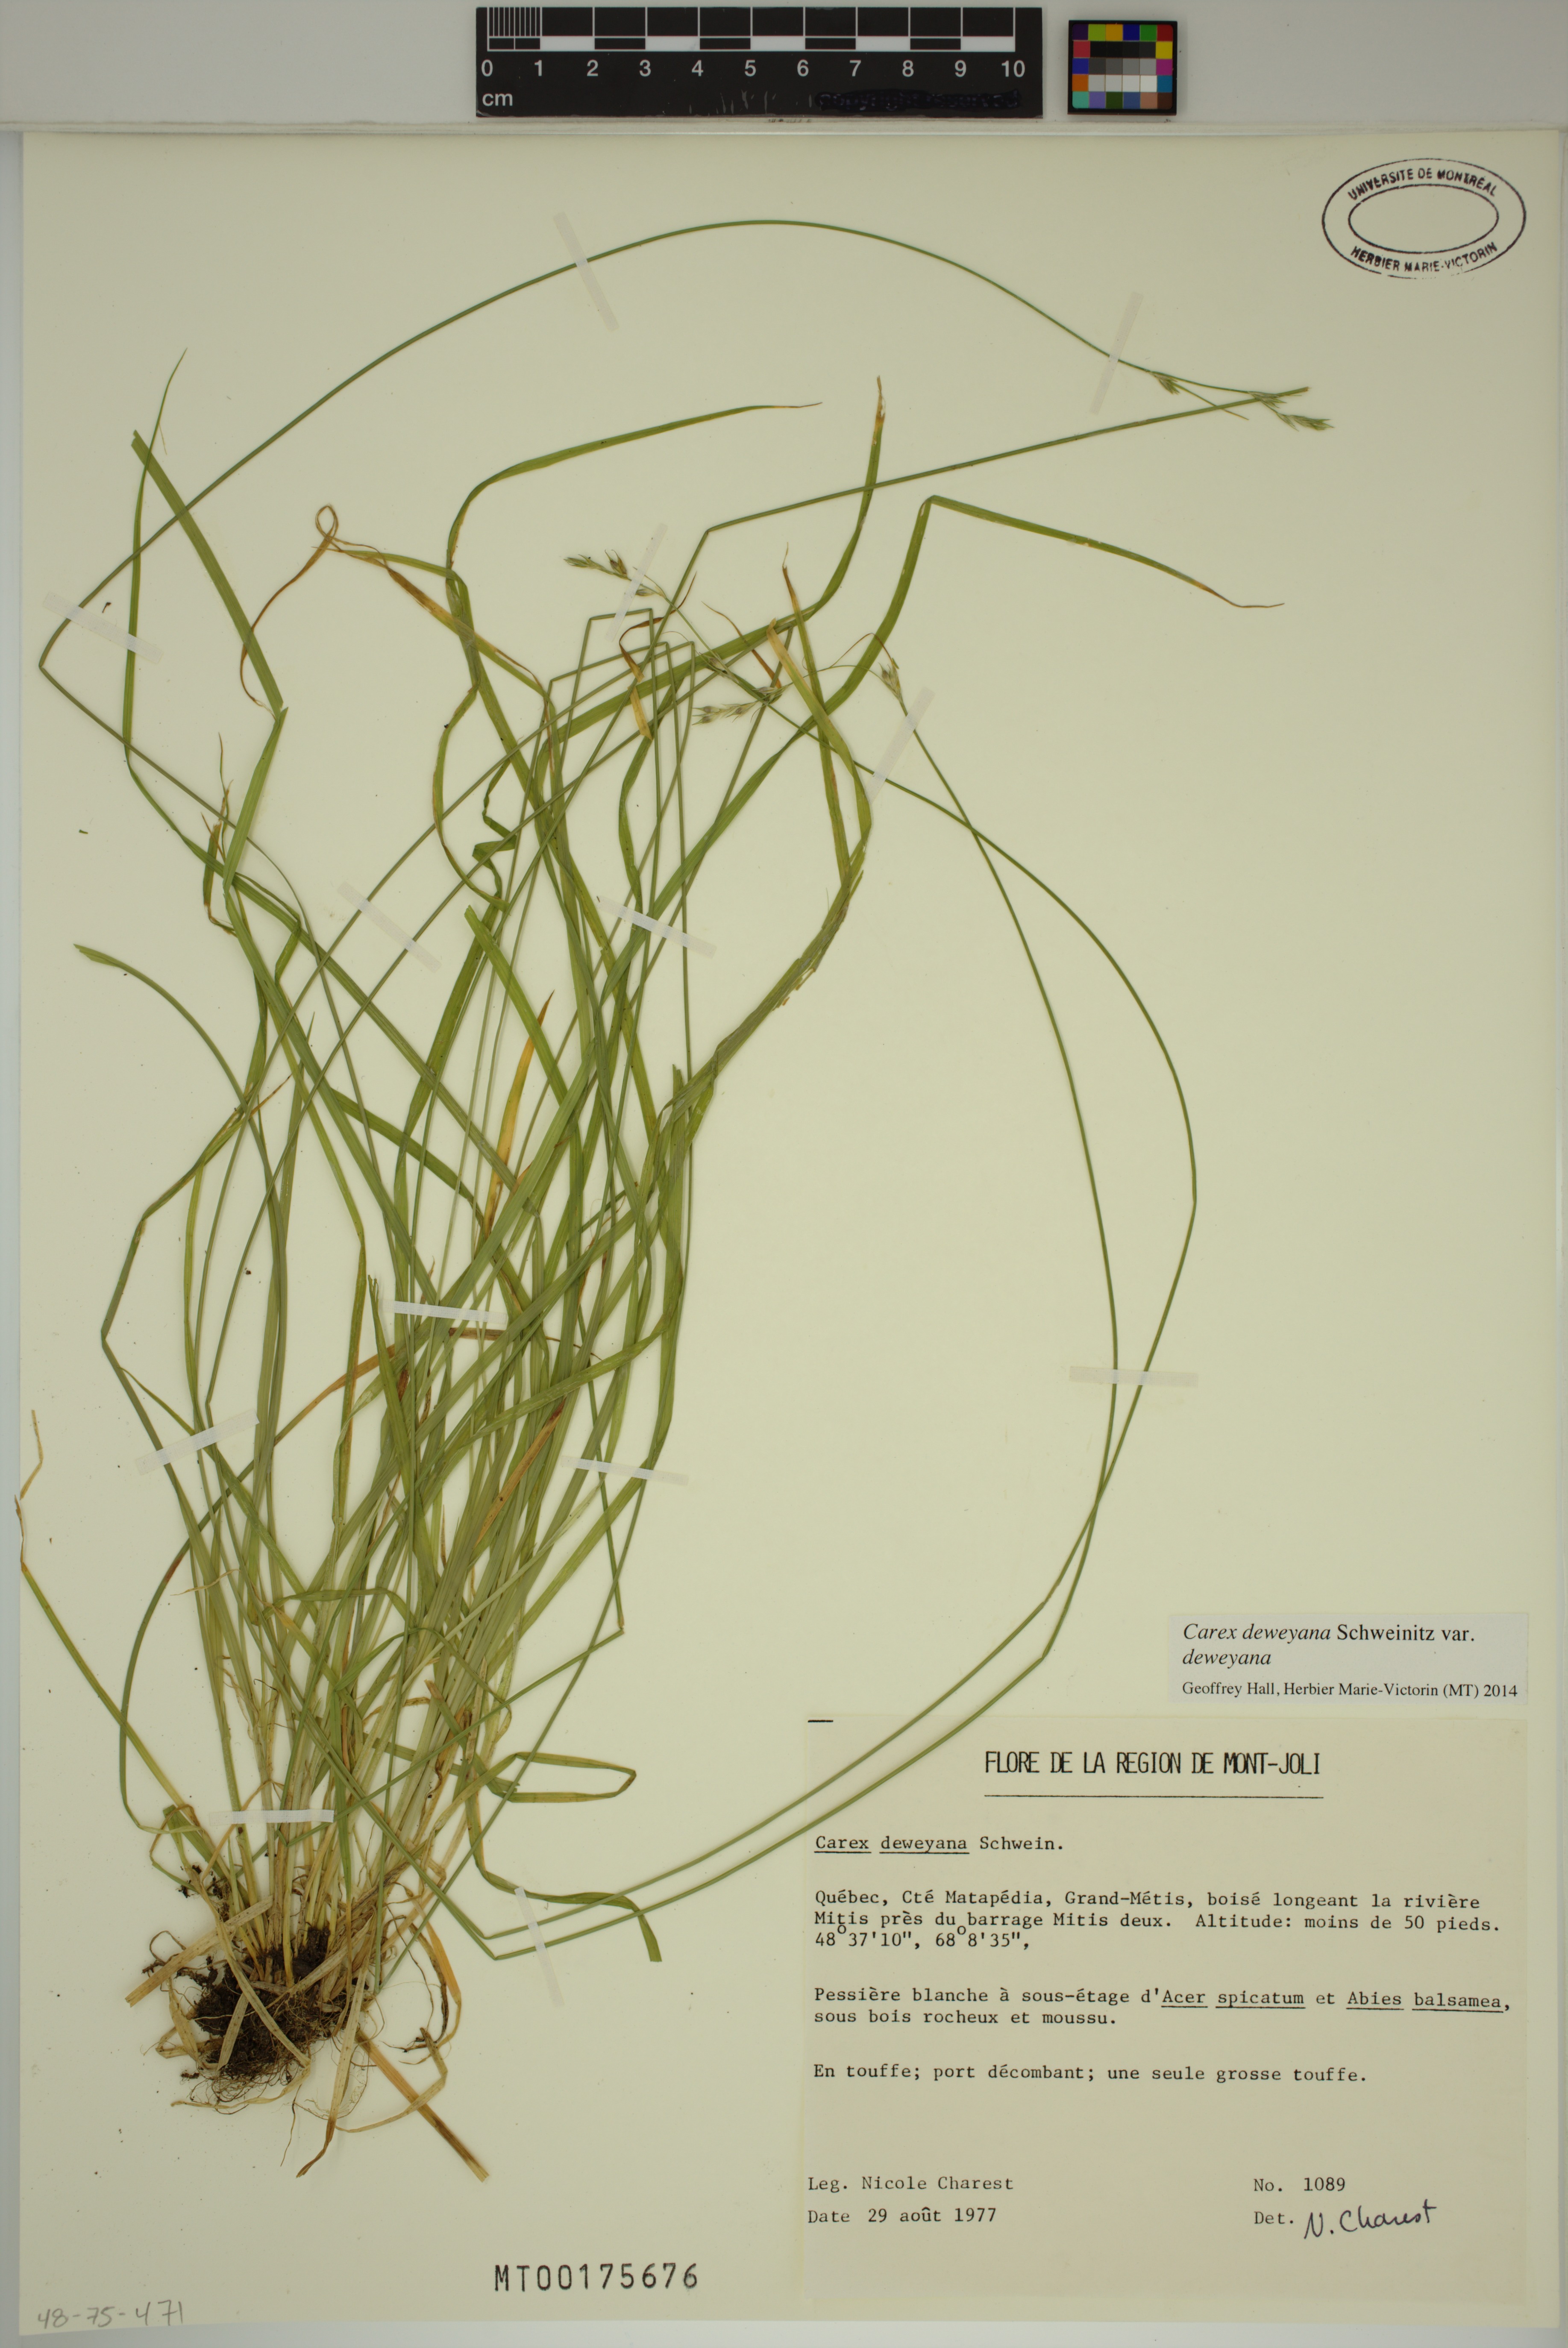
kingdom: Plantae
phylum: Tracheophyta
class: Liliopsida
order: Poales
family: Cyperaceae
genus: Carex
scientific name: Carex deweyana
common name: Dewey's sedge
